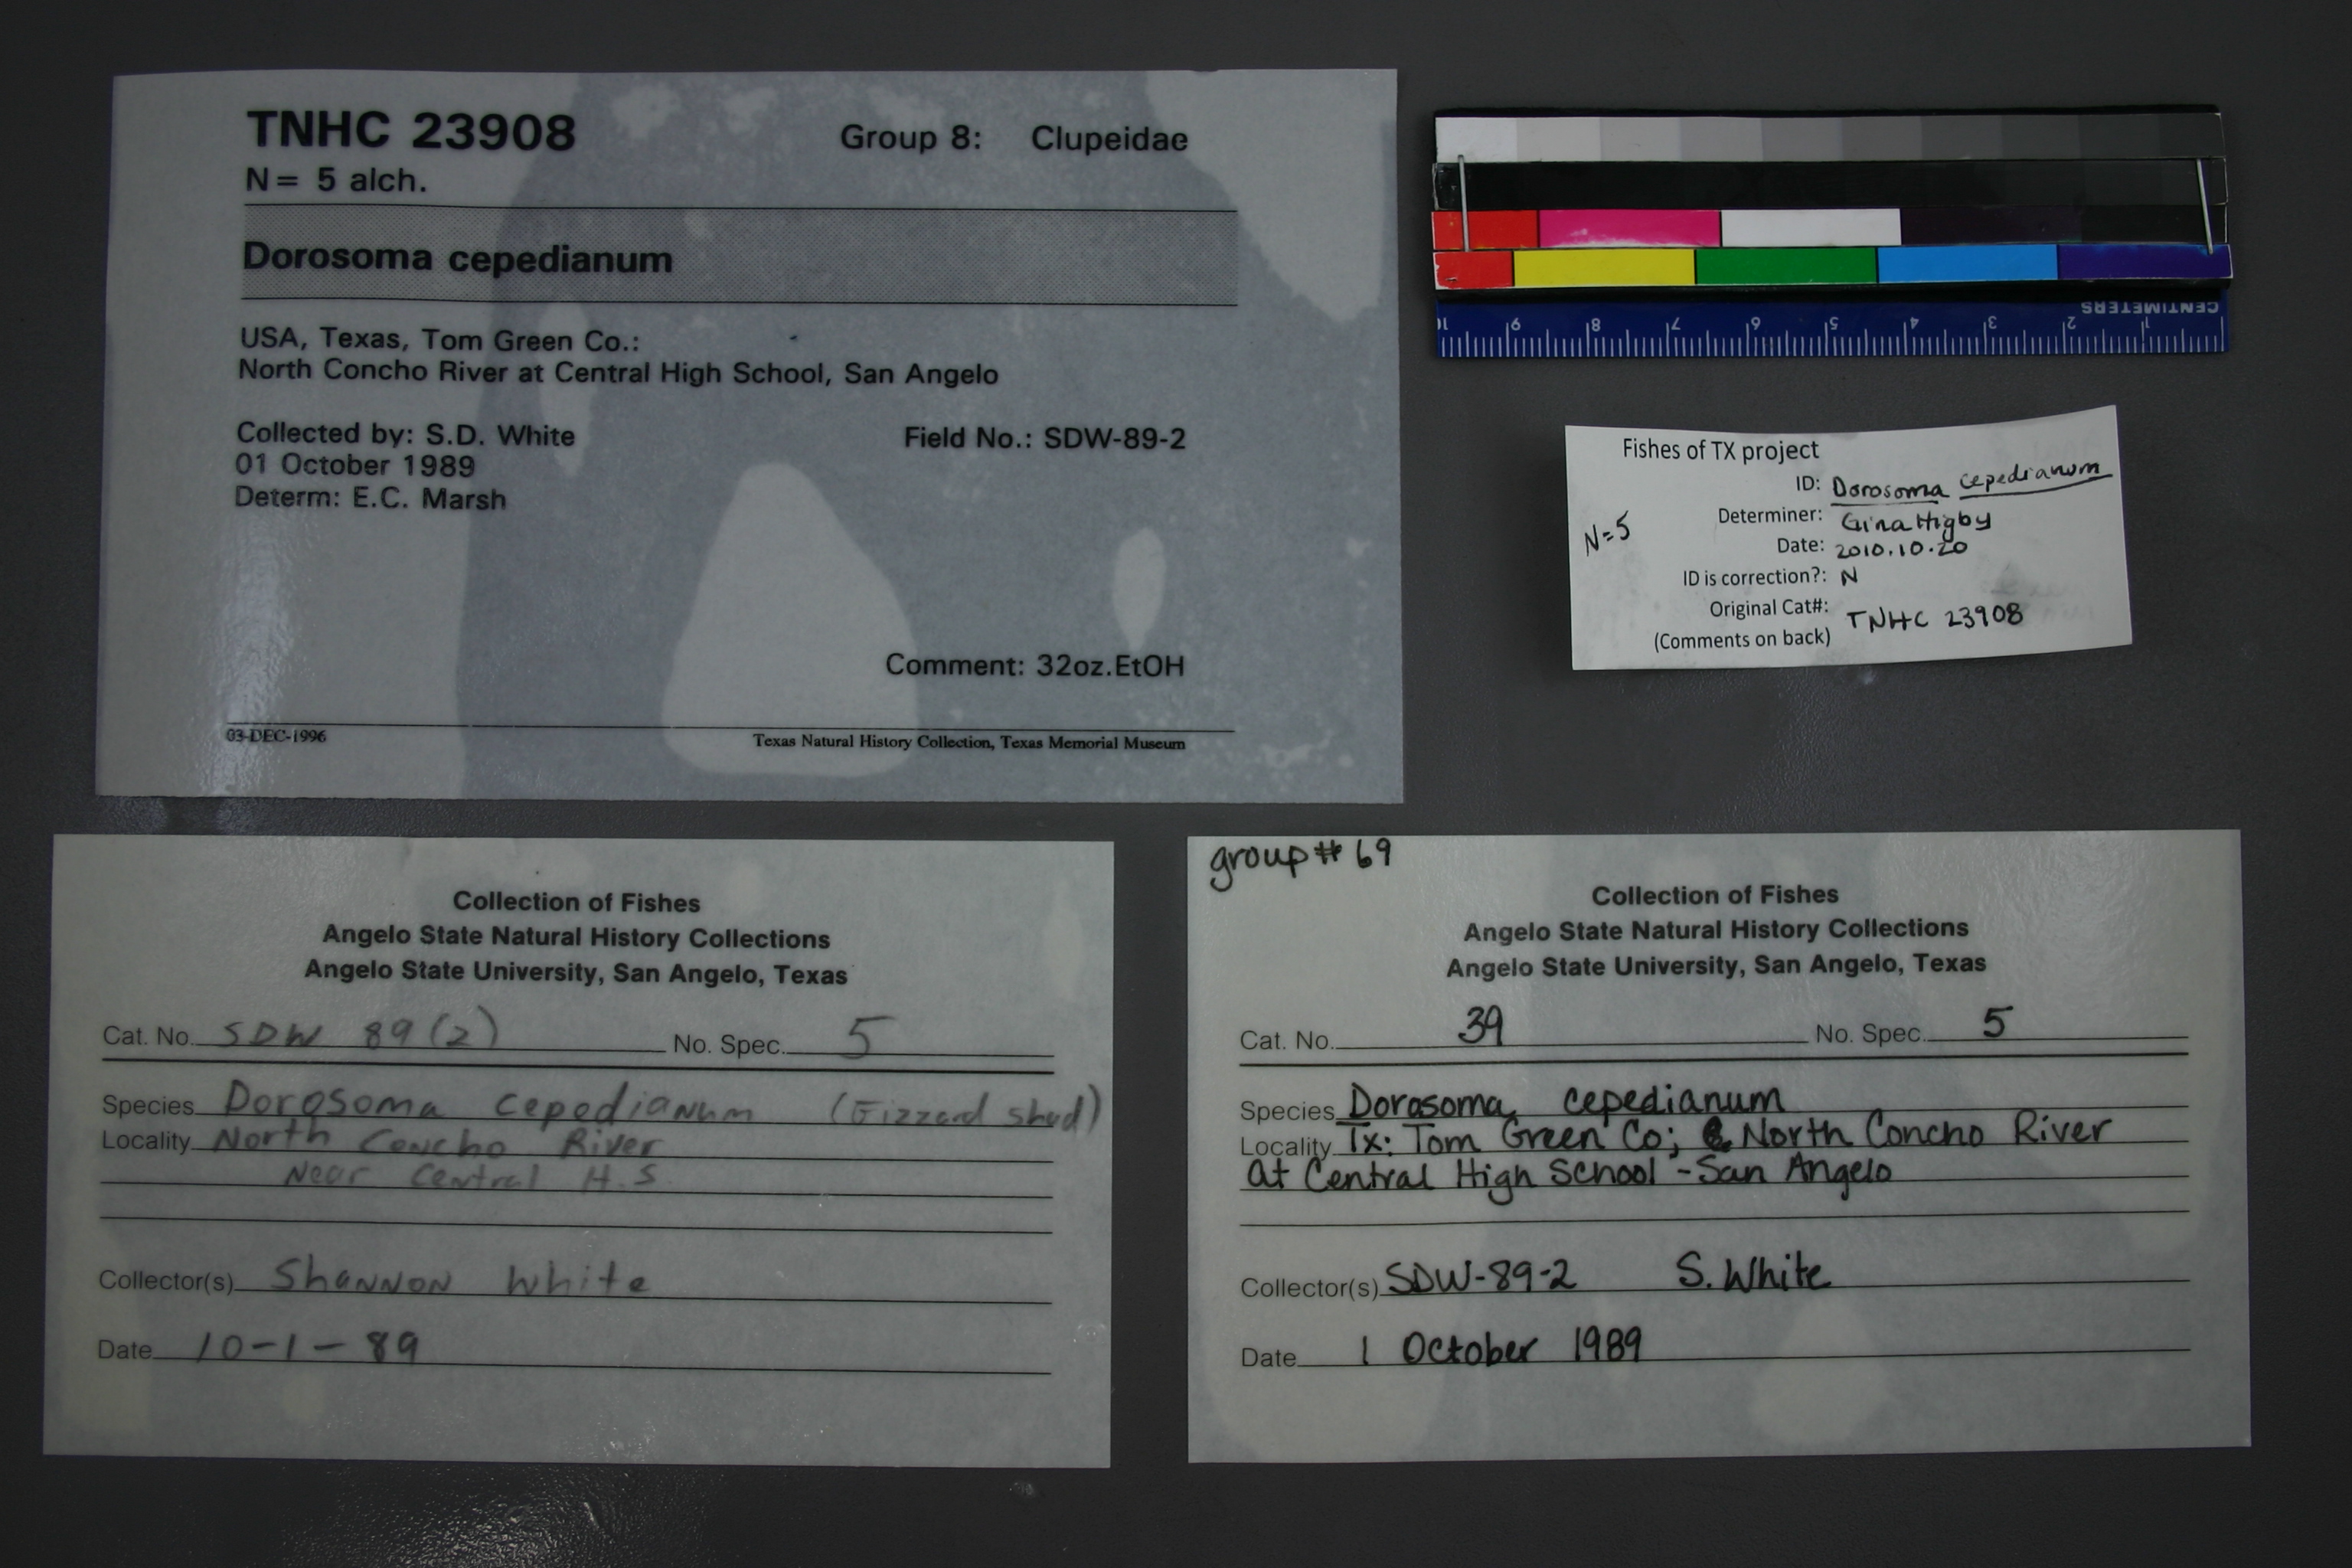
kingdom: Animalia
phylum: Chordata
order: Clupeiformes
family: Clupeidae
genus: Dorosoma
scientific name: Dorosoma cepedianum
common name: Gizzard shad
